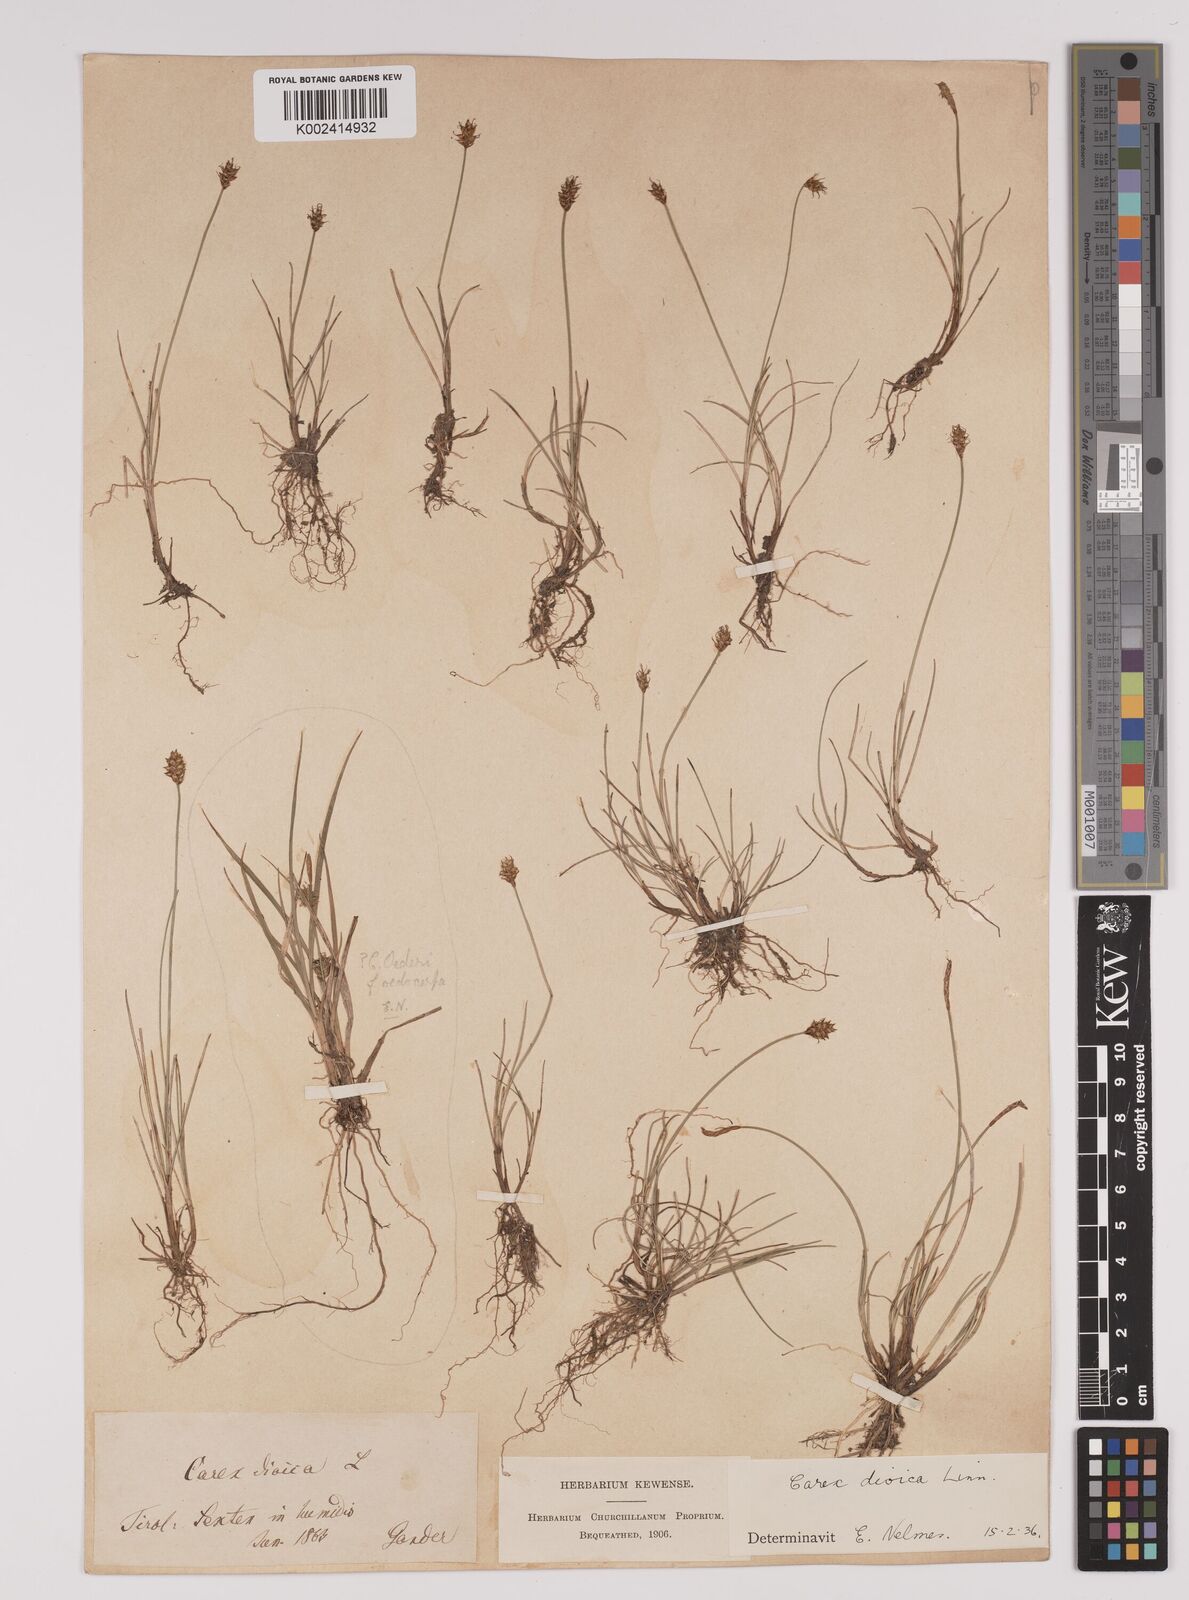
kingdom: Plantae
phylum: Tracheophyta
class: Liliopsida
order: Poales
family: Cyperaceae
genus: Carex
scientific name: Carex dioica
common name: Dioecious sedge
